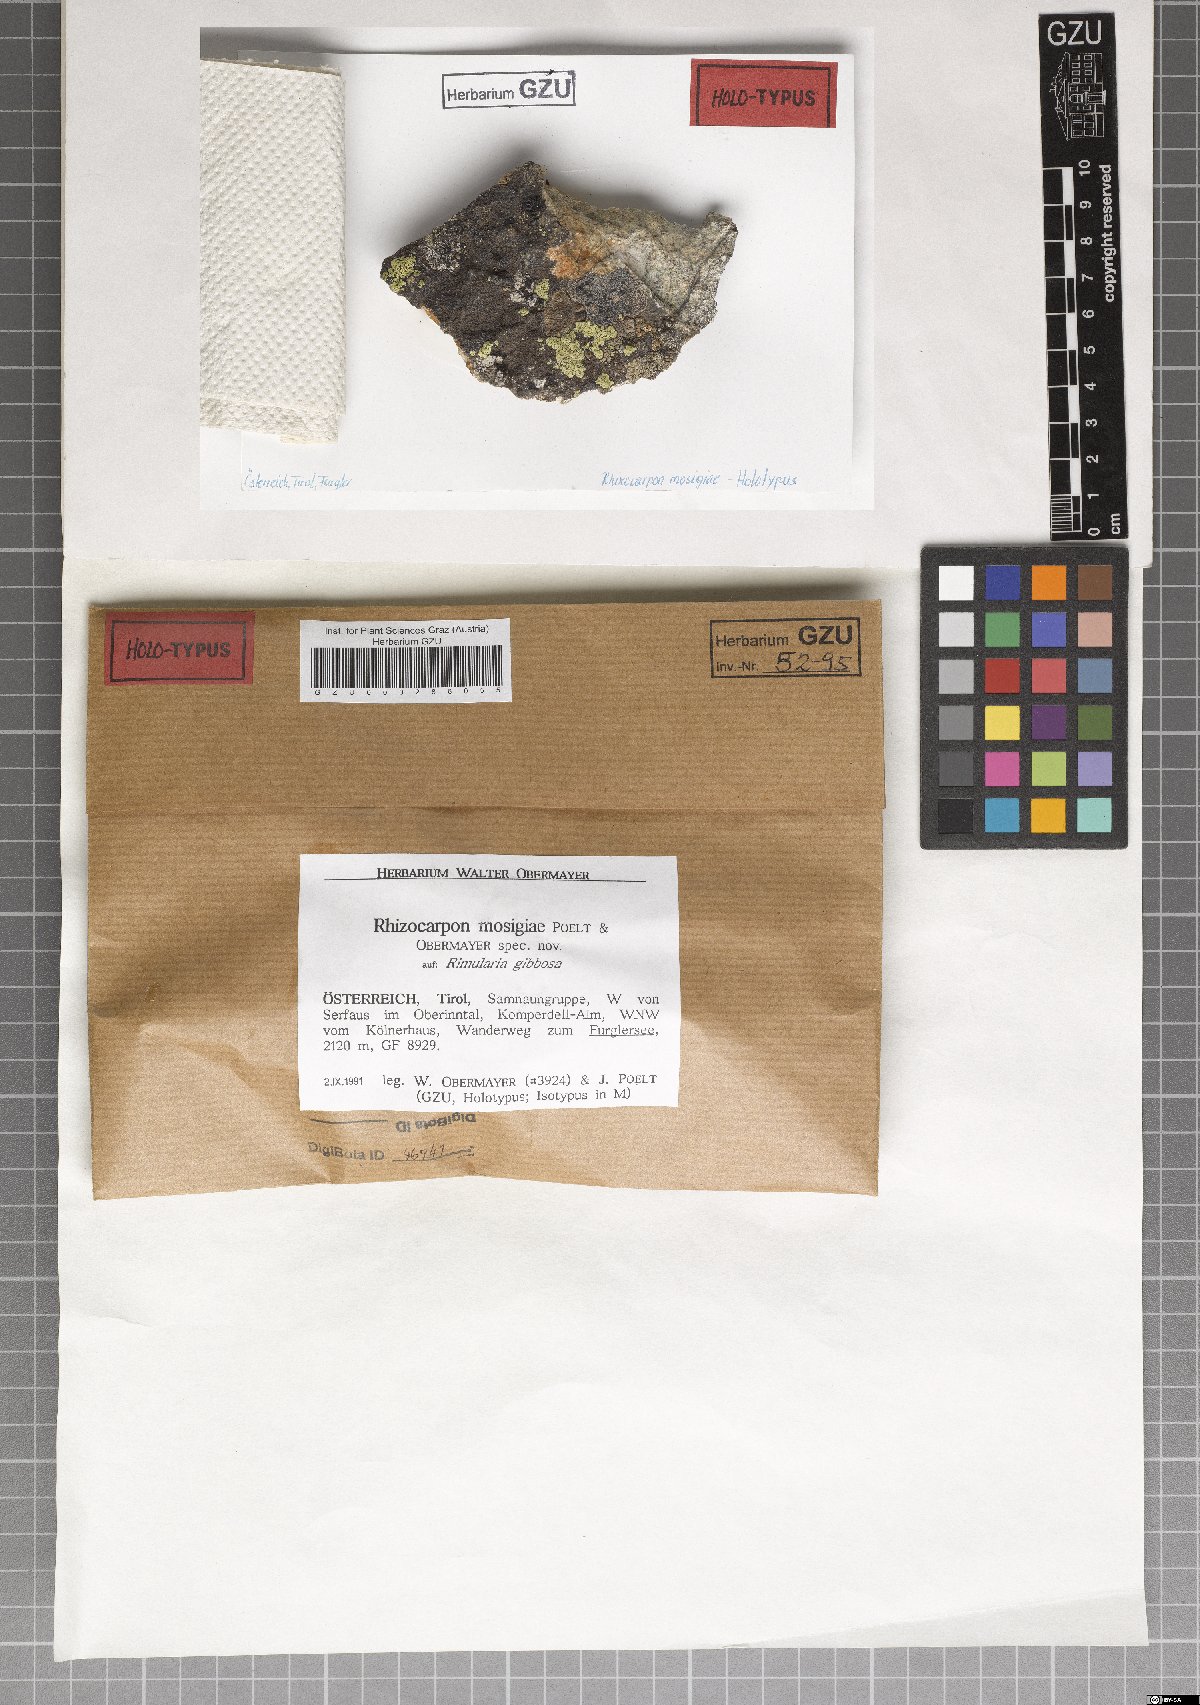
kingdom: Fungi
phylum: Ascomycota
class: Lecanoromycetes
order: Rhizocarpales
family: Rhizocarpaceae
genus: Rhizocarpon
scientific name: Rhizocarpon
